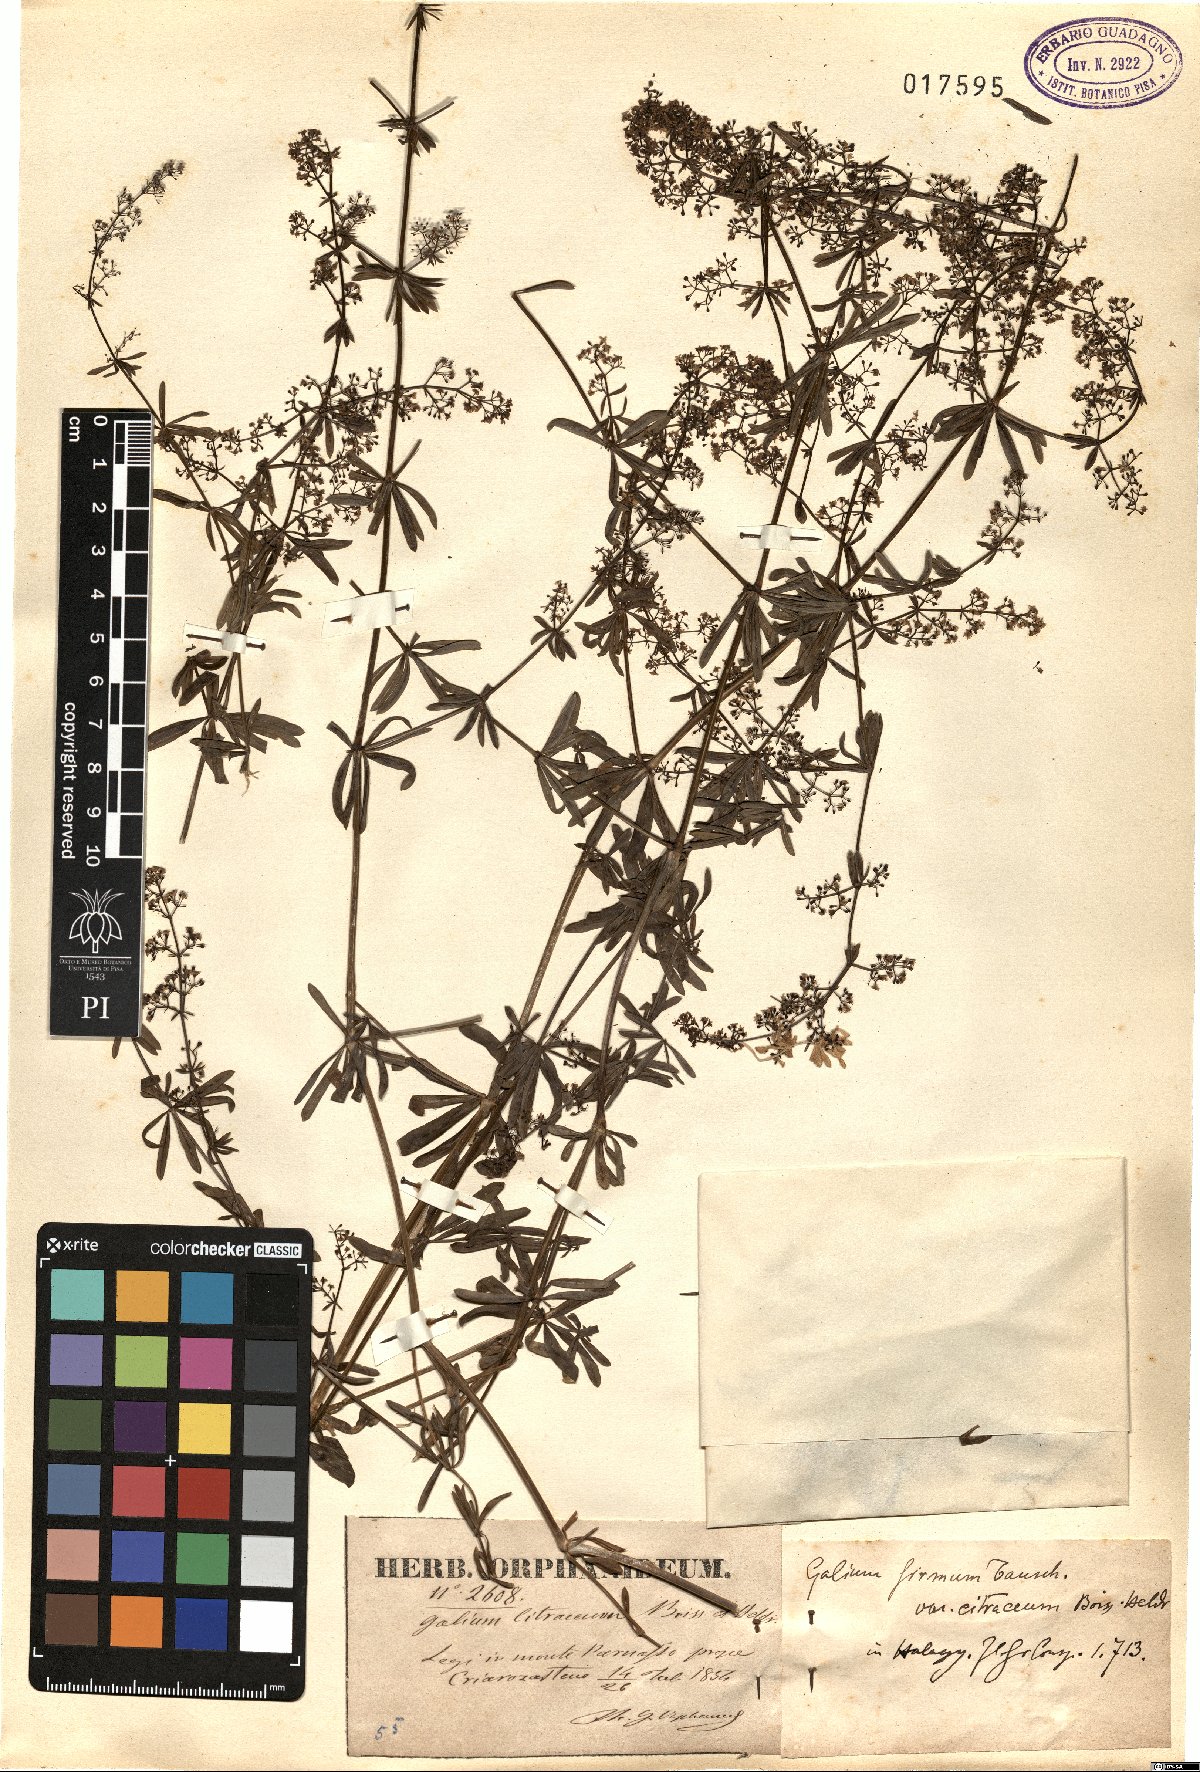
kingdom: Plantae
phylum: Tracheophyta
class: Magnoliopsida
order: Gentianales
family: Rubiaceae
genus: Galium
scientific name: Galium heldreichii
